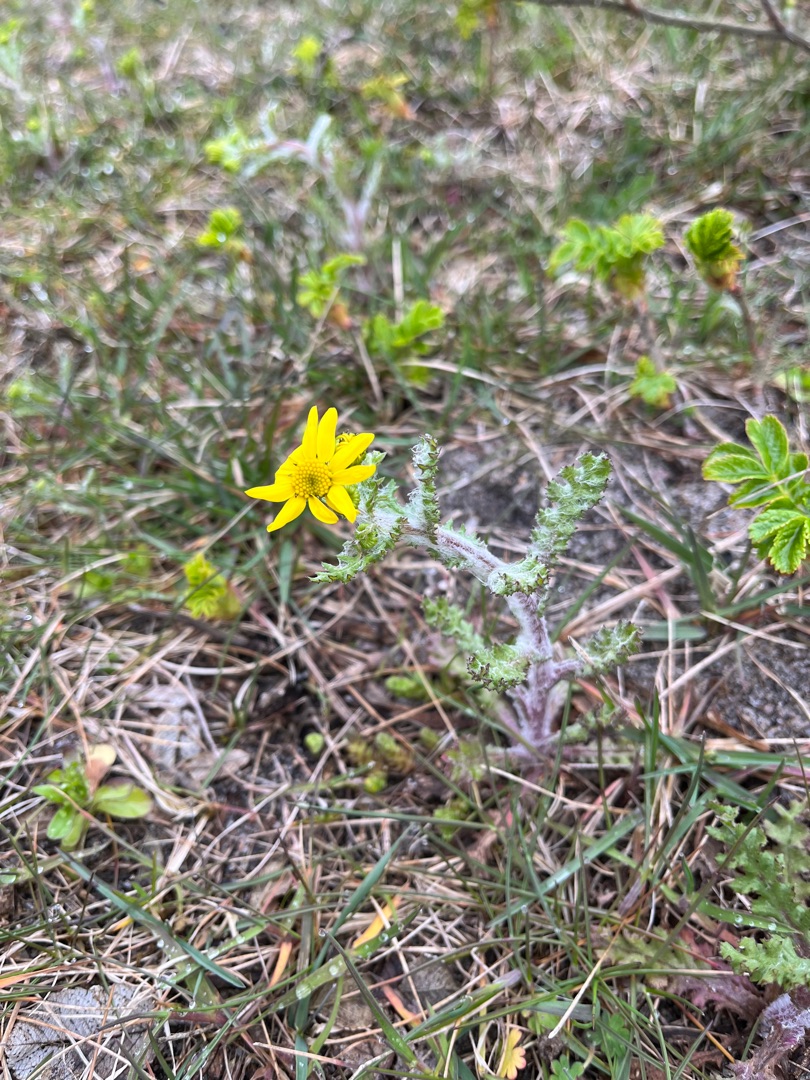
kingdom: Plantae
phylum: Tracheophyta
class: Magnoliopsida
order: Asterales
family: Asteraceae
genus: Senecio
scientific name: Senecio leucanthemifolius
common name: Vår-brandbæger
